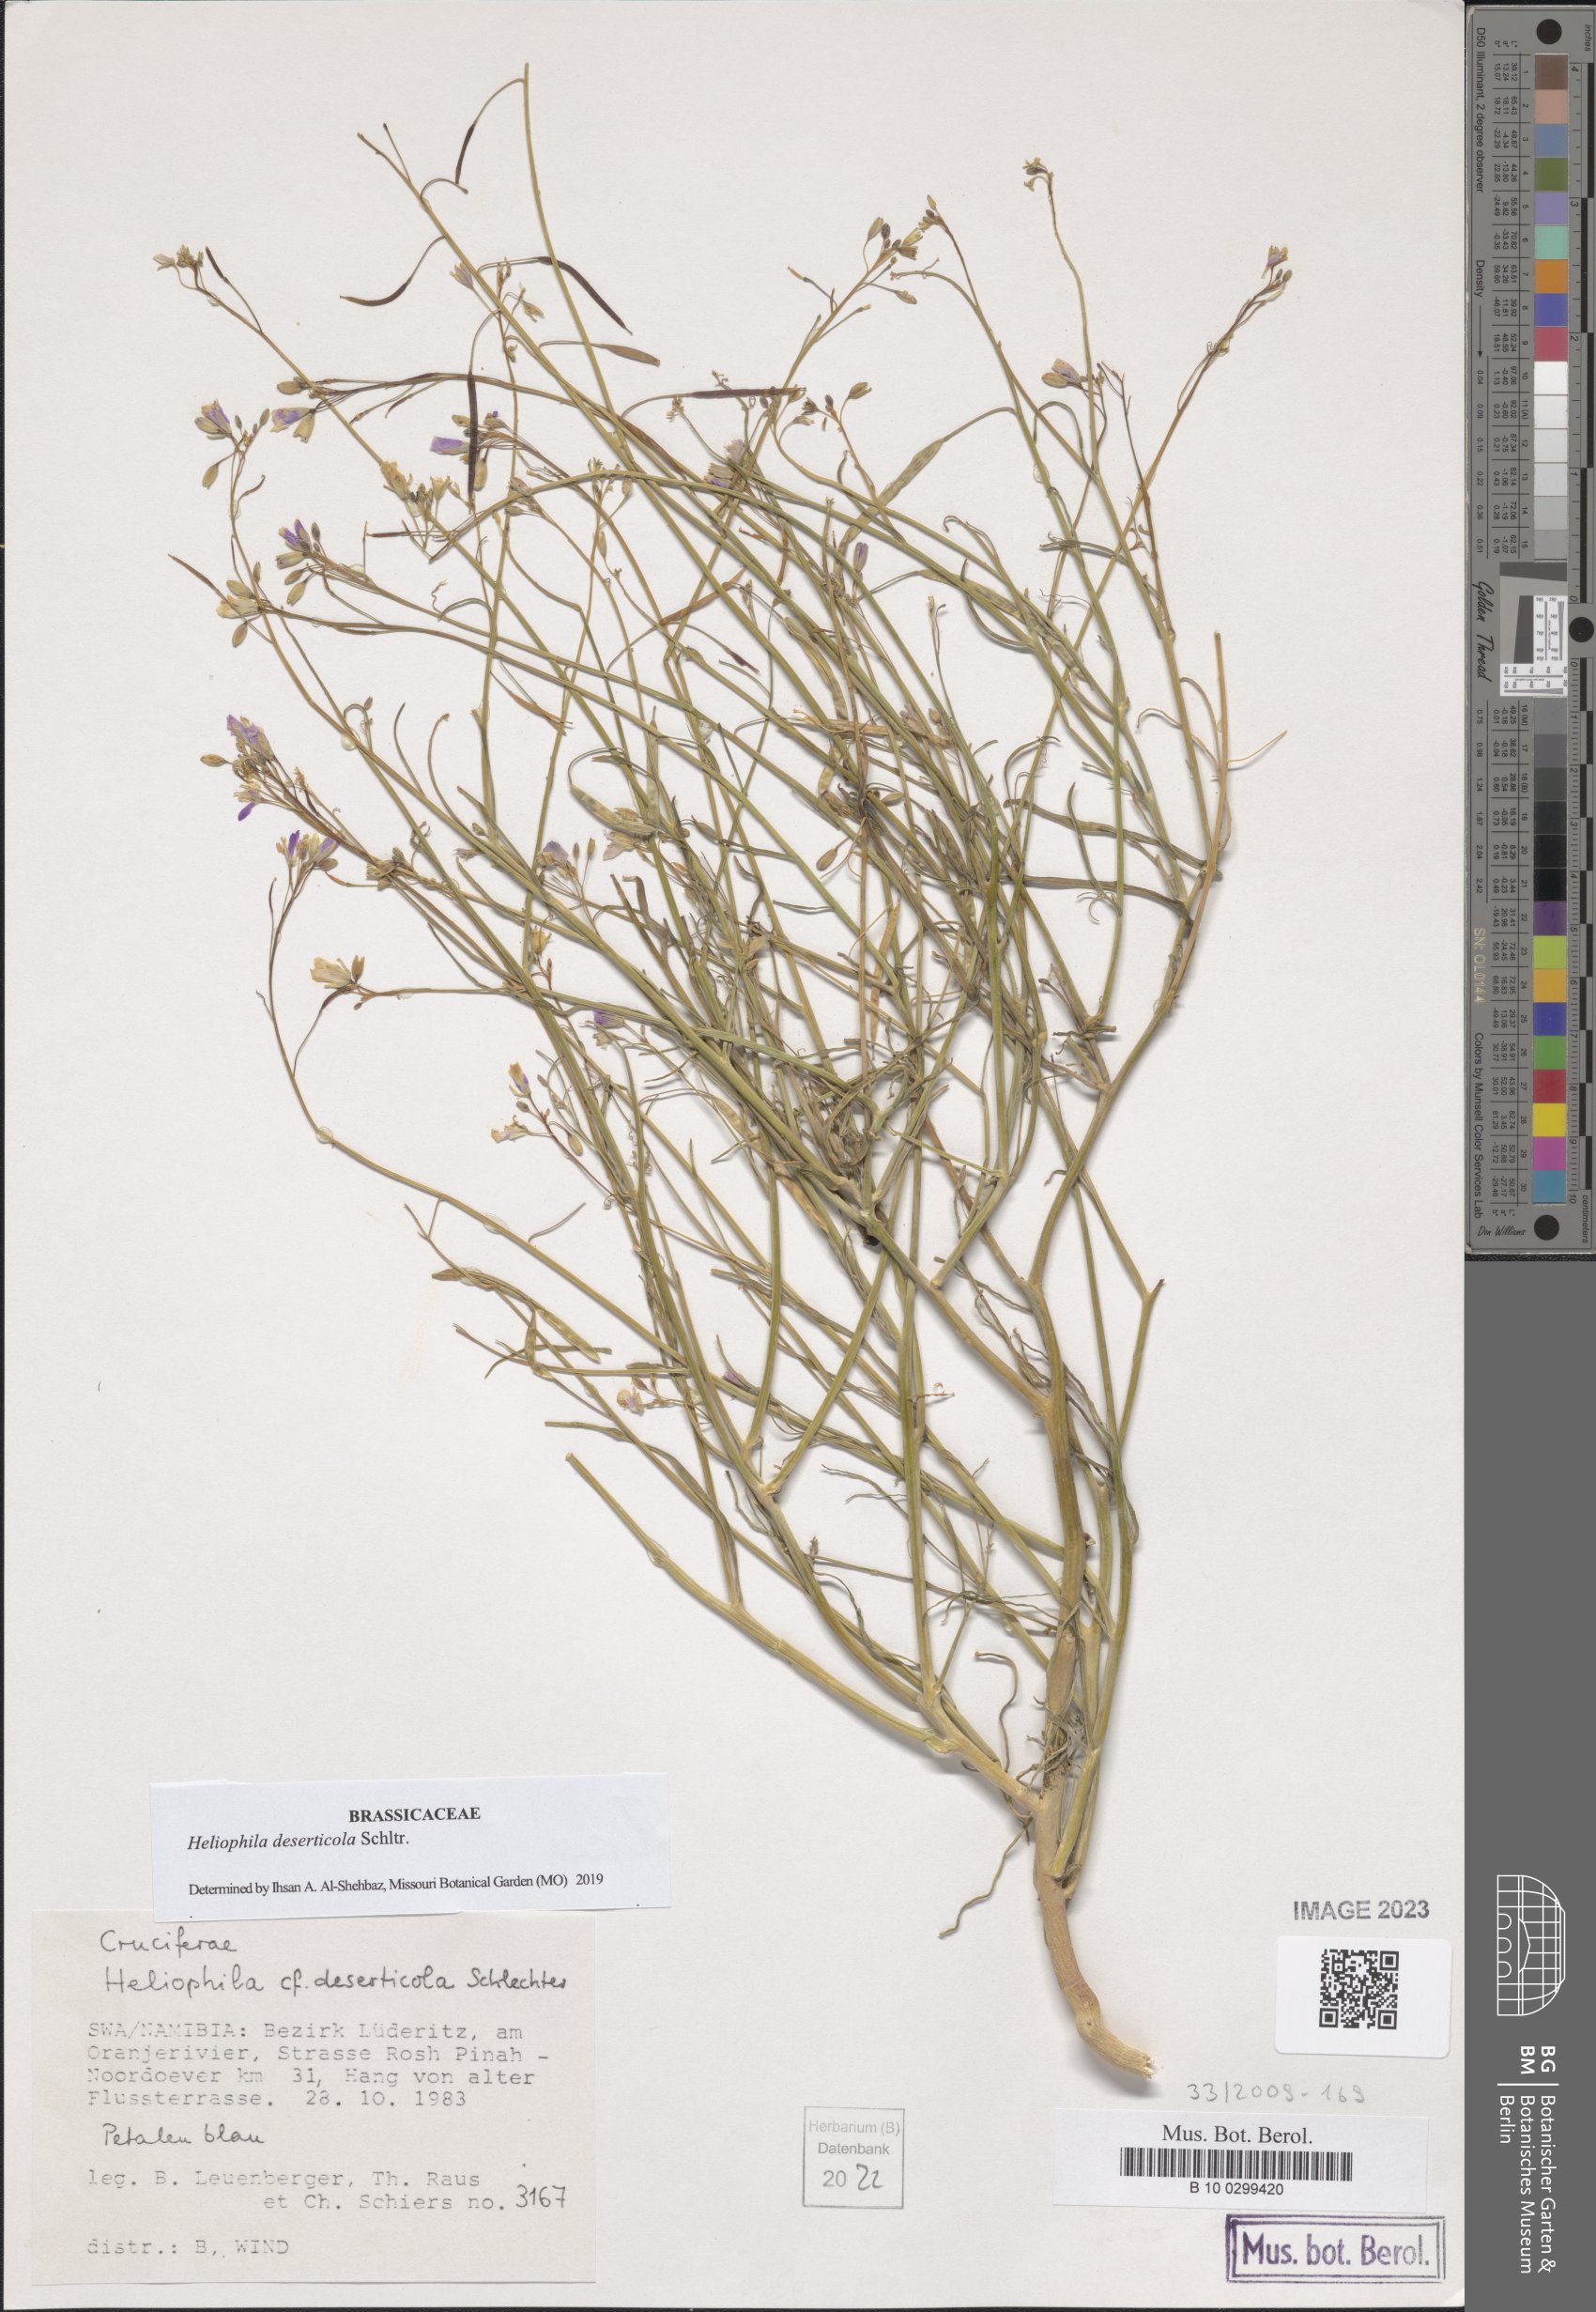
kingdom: Plantae
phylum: Tracheophyta
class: Magnoliopsida
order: Brassicales
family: Brassicaceae
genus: Heliophila
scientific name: Heliophila deserticola
